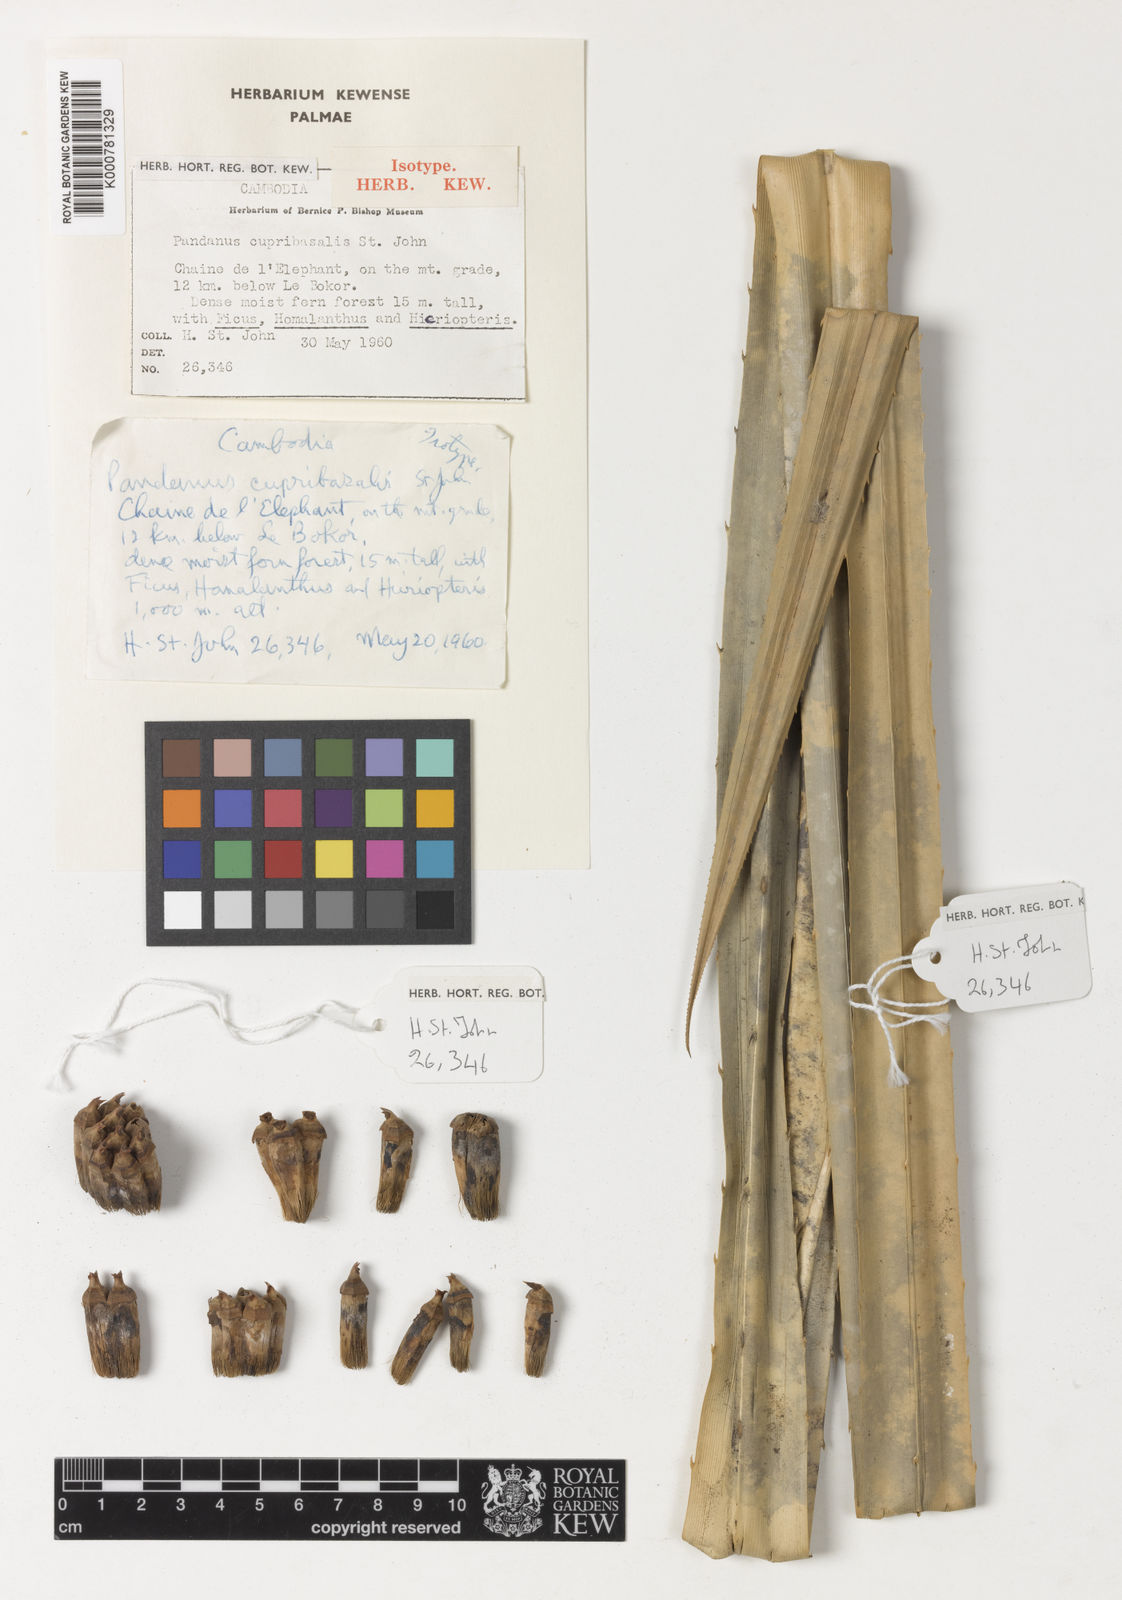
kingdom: Plantae
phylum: Tracheophyta
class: Liliopsida
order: Pandanales
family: Pandanaceae
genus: Pandanus
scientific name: Pandanus cupribasalis
